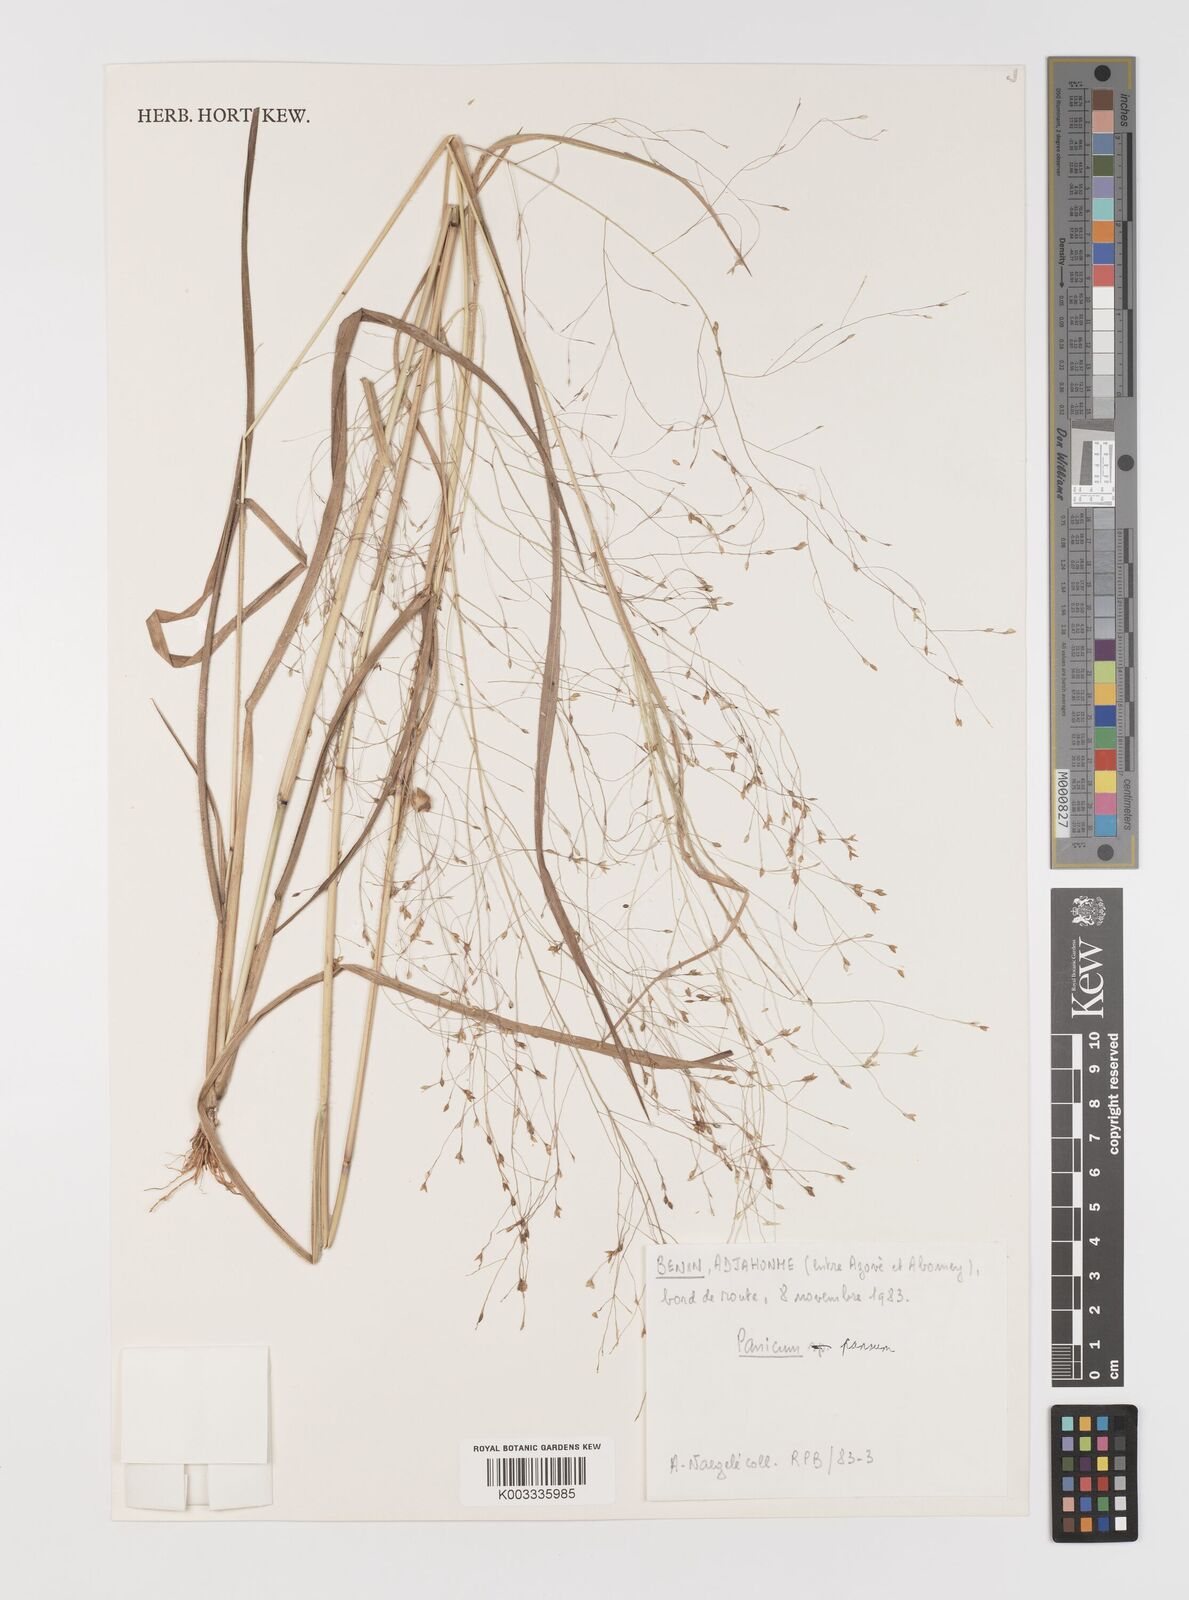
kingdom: Plantae
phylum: Tracheophyta
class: Liliopsida
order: Poales
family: Poaceae
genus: Panicum
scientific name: Panicum pansum
